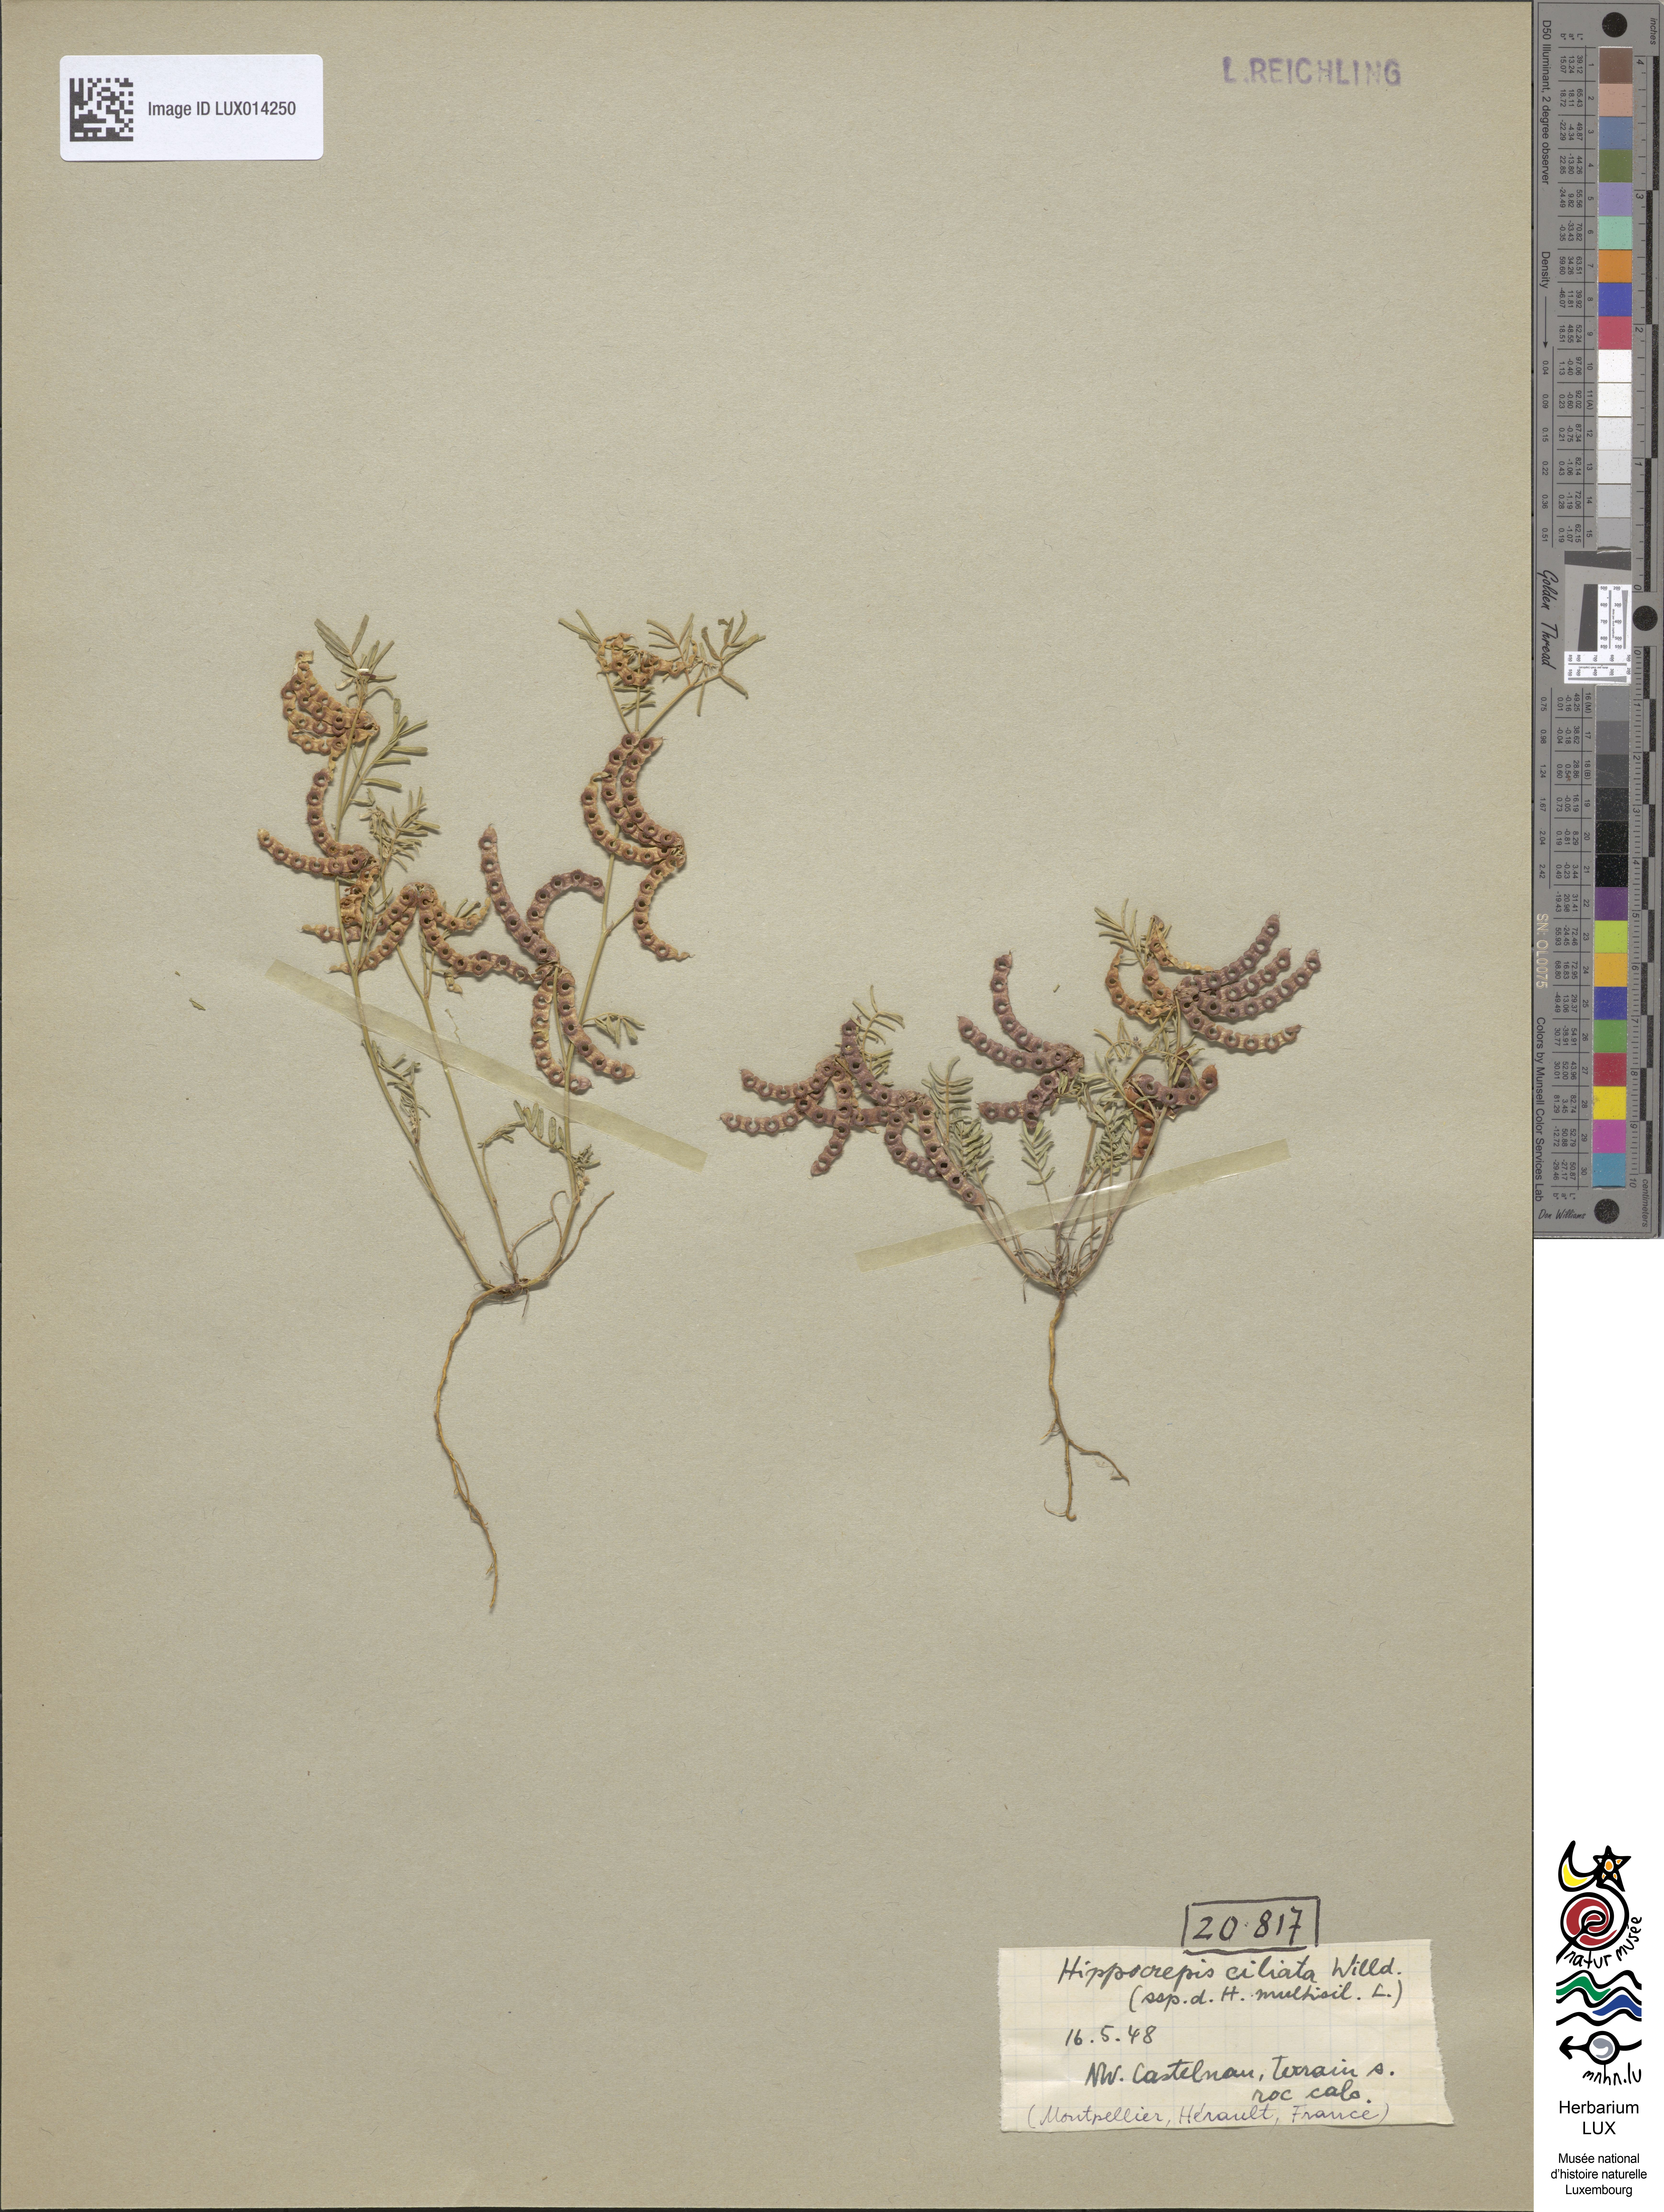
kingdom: Plantae
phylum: Tracheophyta
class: Magnoliopsida
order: Fabales
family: Fabaceae
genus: Hippocrepis
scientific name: Hippocrepis ciliata
